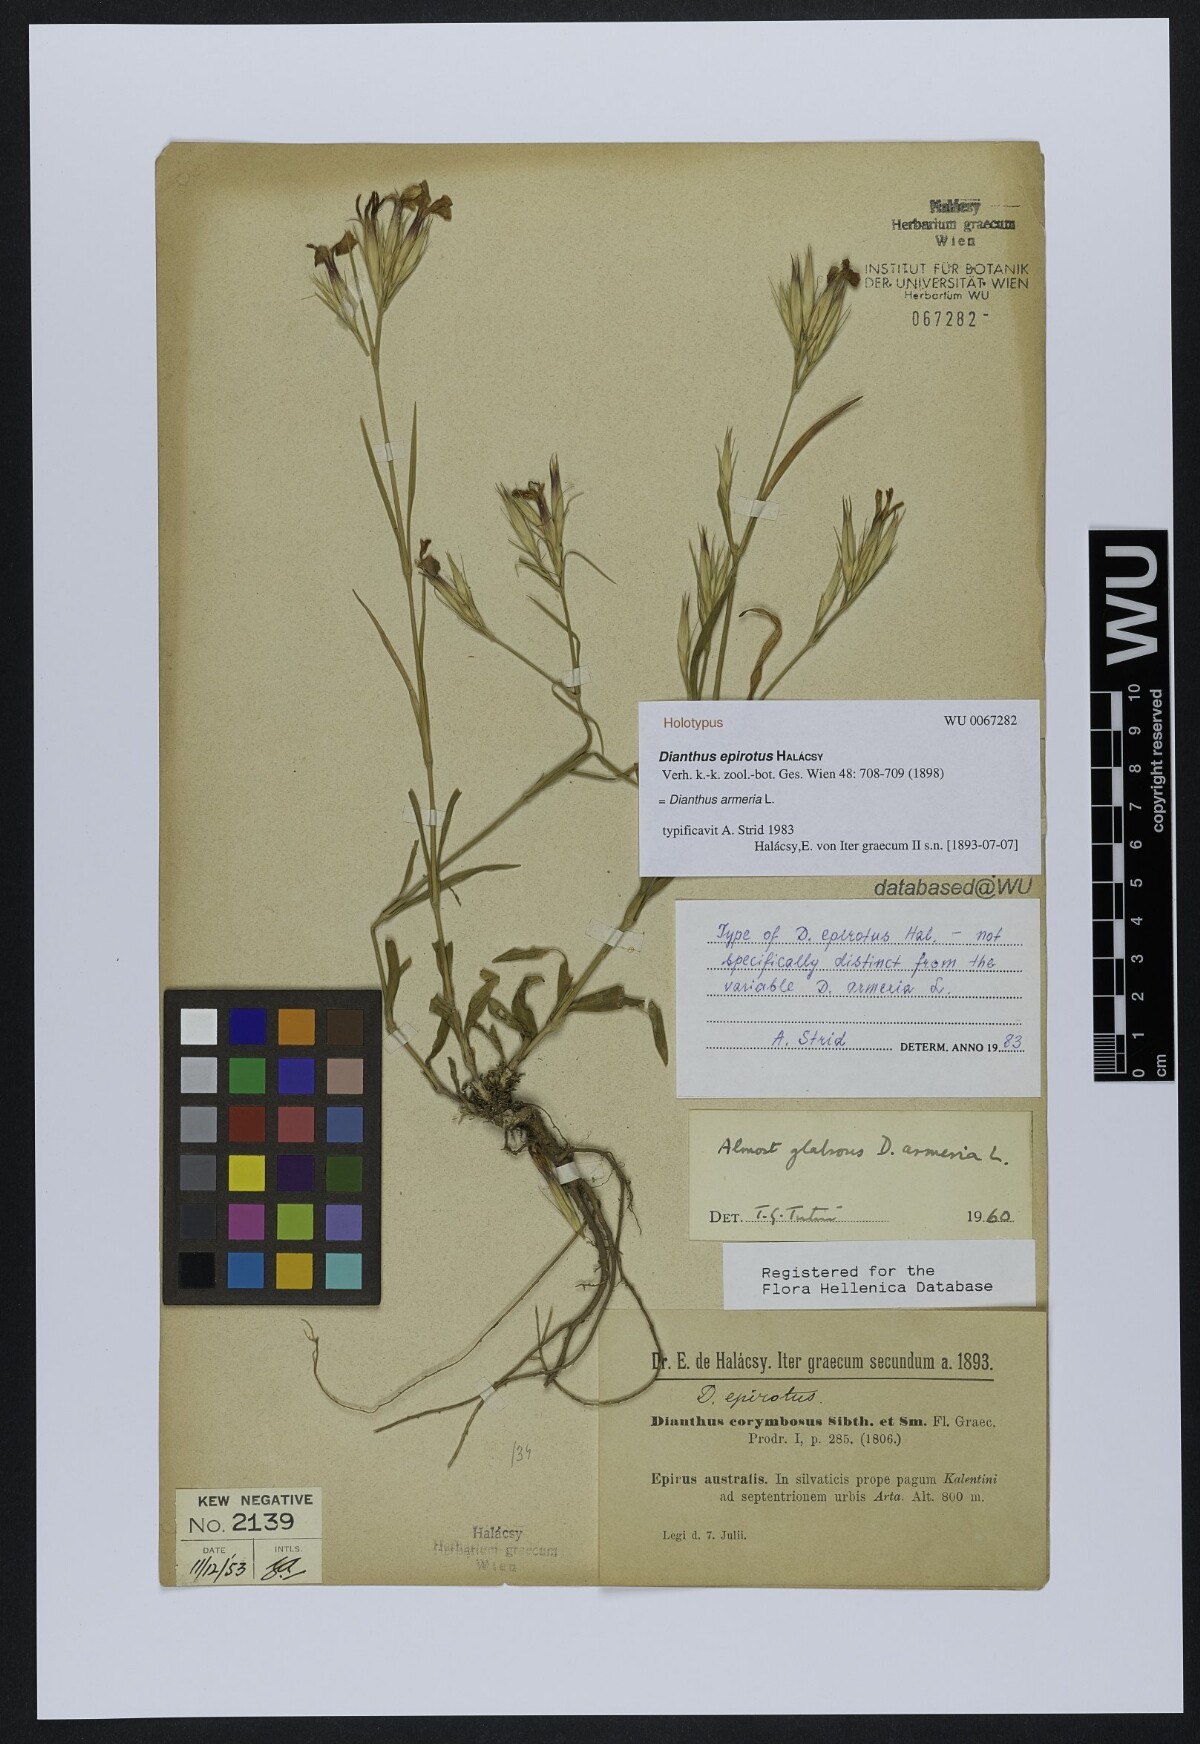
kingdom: Plantae
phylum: Tracheophyta
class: Magnoliopsida
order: Caryophyllales
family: Caryophyllaceae
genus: Dianthus
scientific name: Dianthus armeria
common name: Deptford pink
